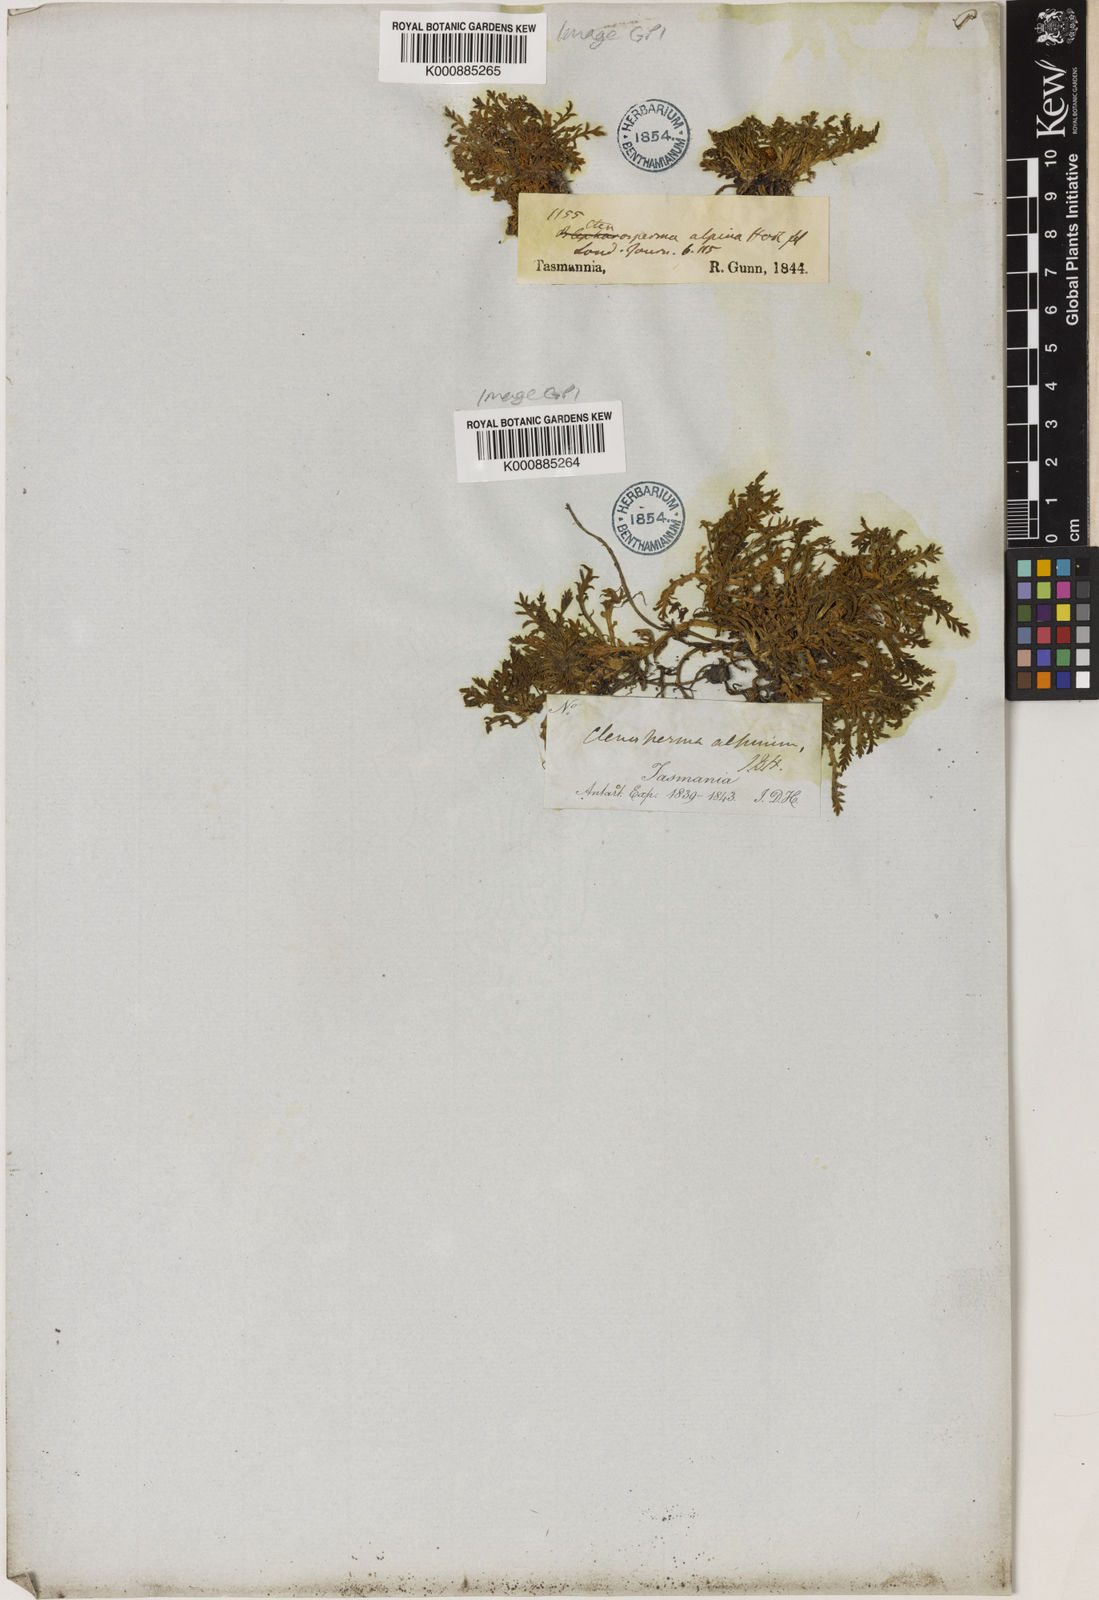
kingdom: Plantae
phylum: Tracheophyta
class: Magnoliopsida
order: Asterales
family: Asteraceae
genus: Cotula
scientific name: Cotula alpina
